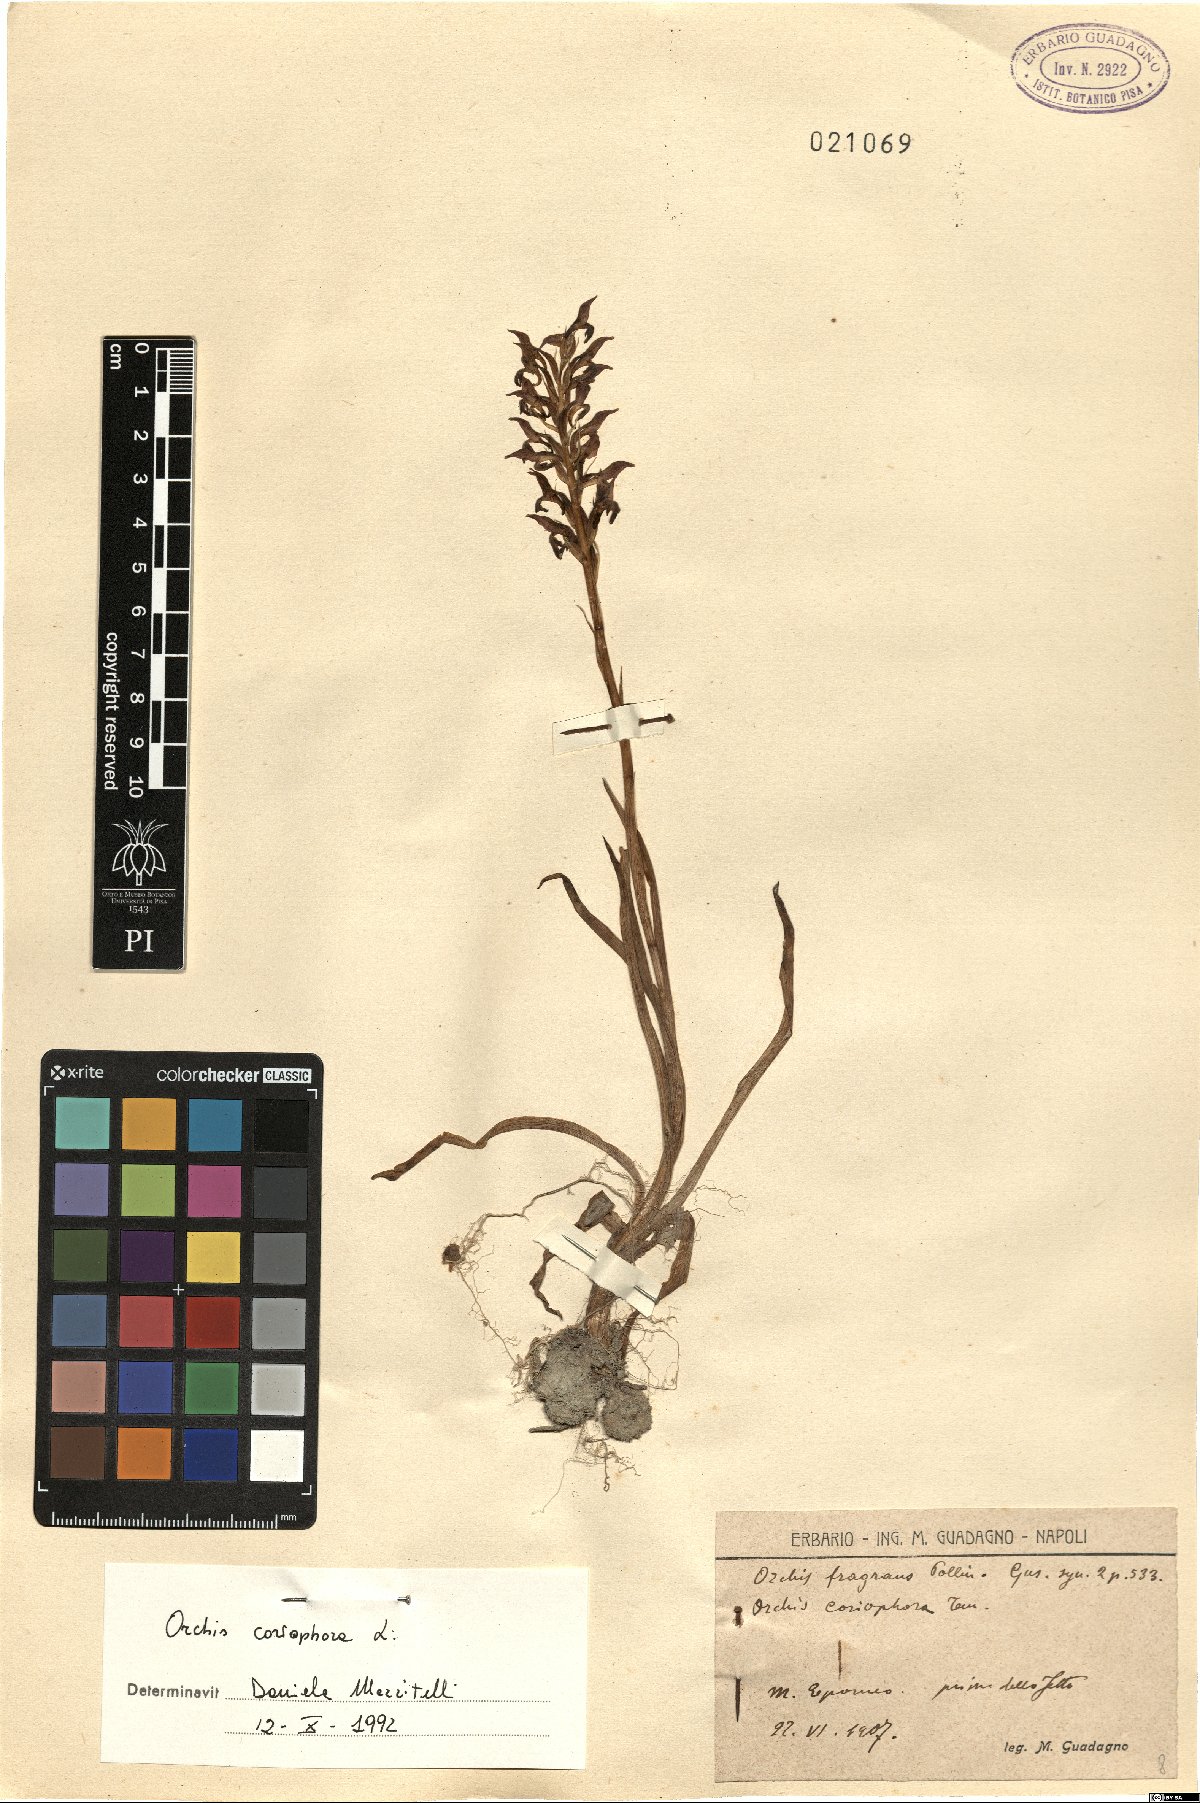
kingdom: Plantae
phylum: Tracheophyta
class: Liliopsida
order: Asparagales
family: Orchidaceae
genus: Anacamptis
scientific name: Anacamptis coriophora
